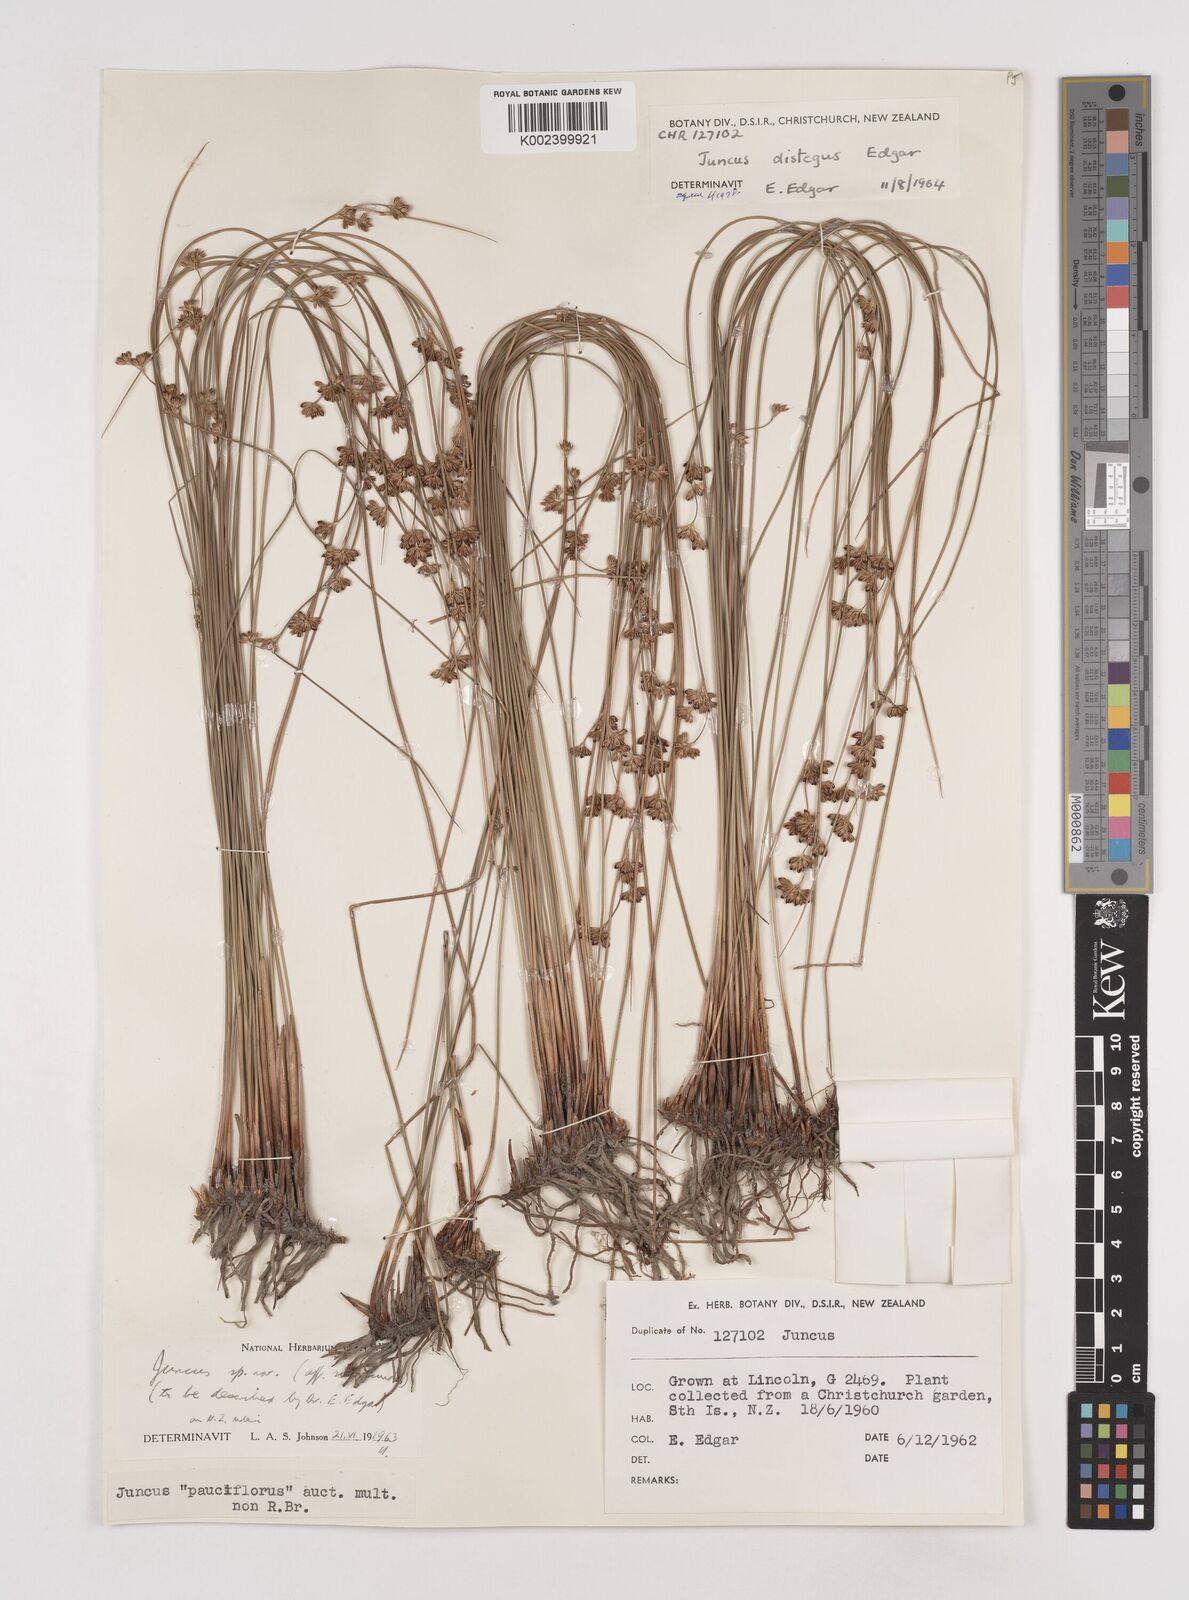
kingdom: Plantae
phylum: Tracheophyta
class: Liliopsida
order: Poales
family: Juncaceae
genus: Juncus
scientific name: Juncus distegus
